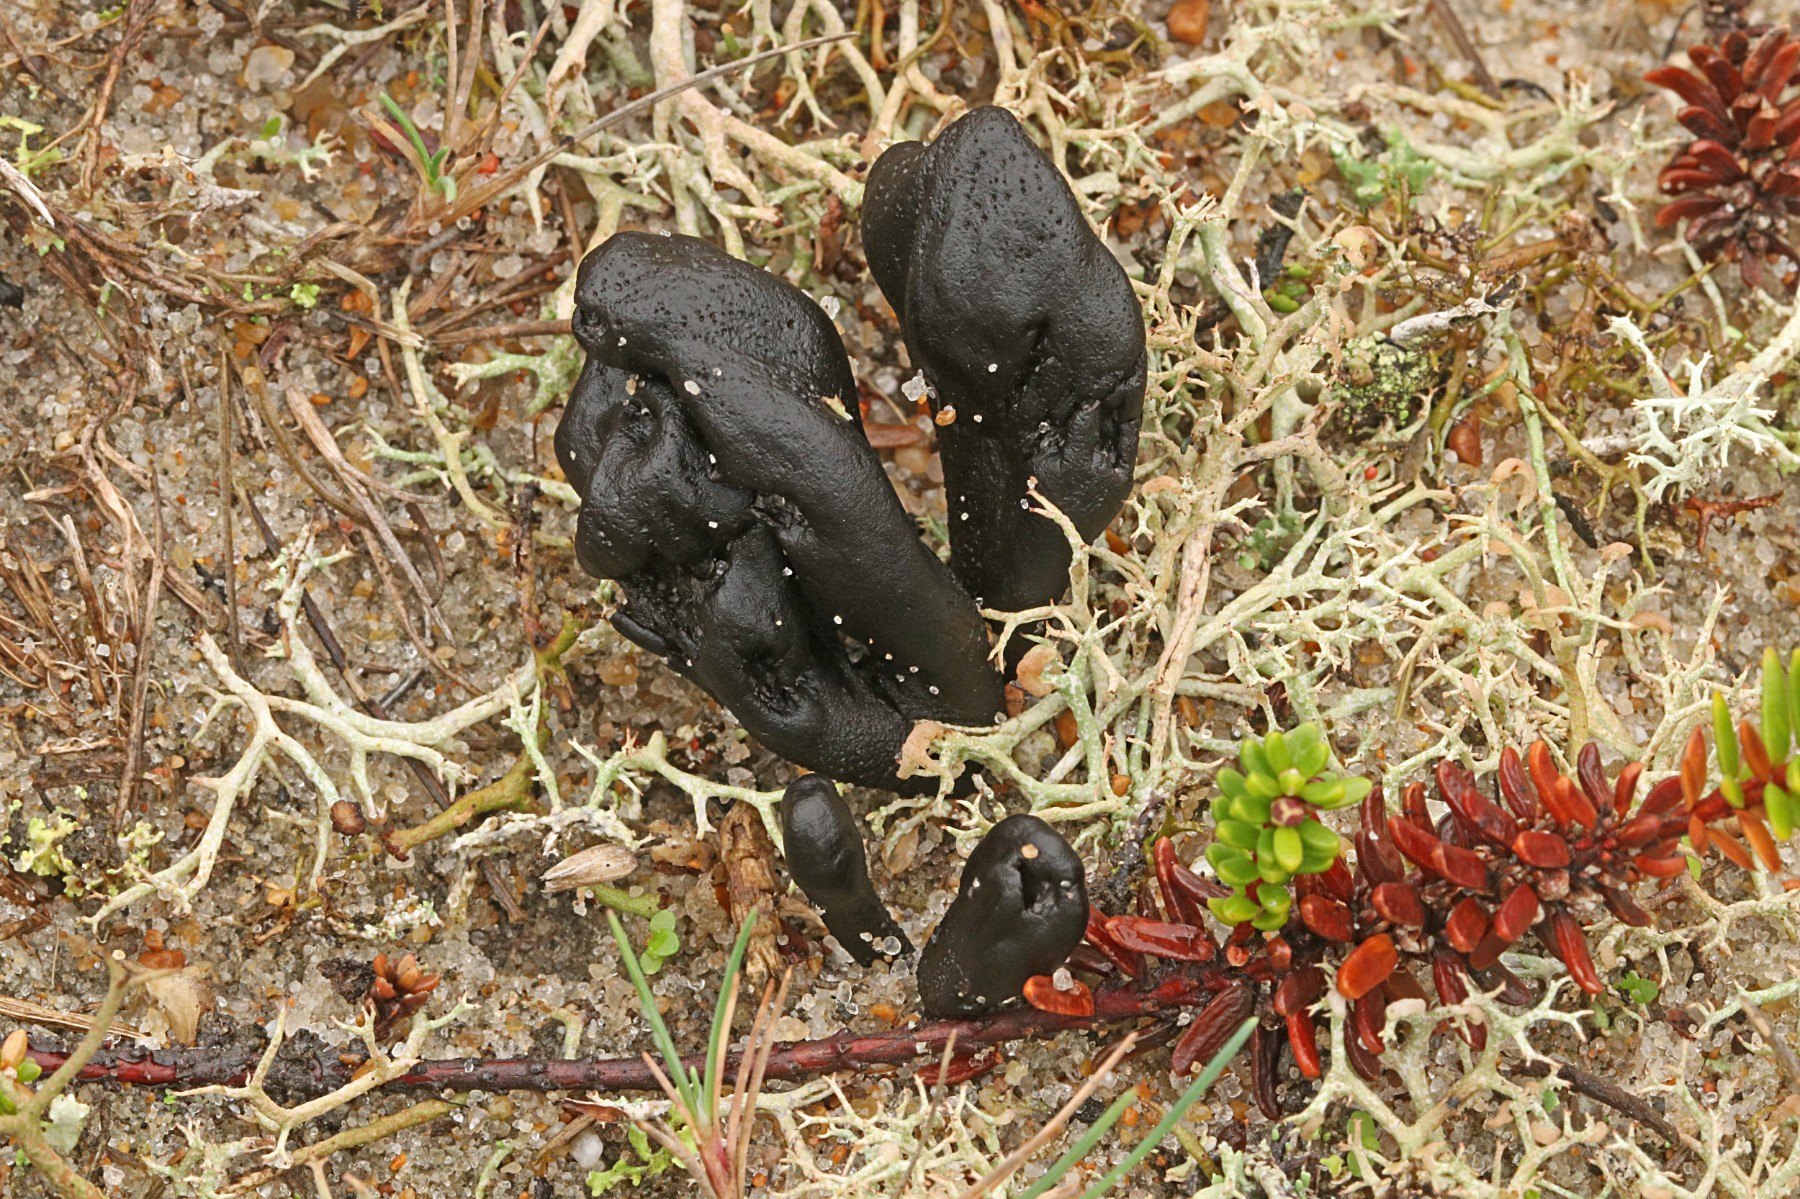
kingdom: Fungi
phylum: Ascomycota
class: Geoglossomycetes
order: Geoglossales
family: Geoglossaceae
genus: Sabuloglossum
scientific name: Sabuloglossum arenarium
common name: klit-jordtunge
